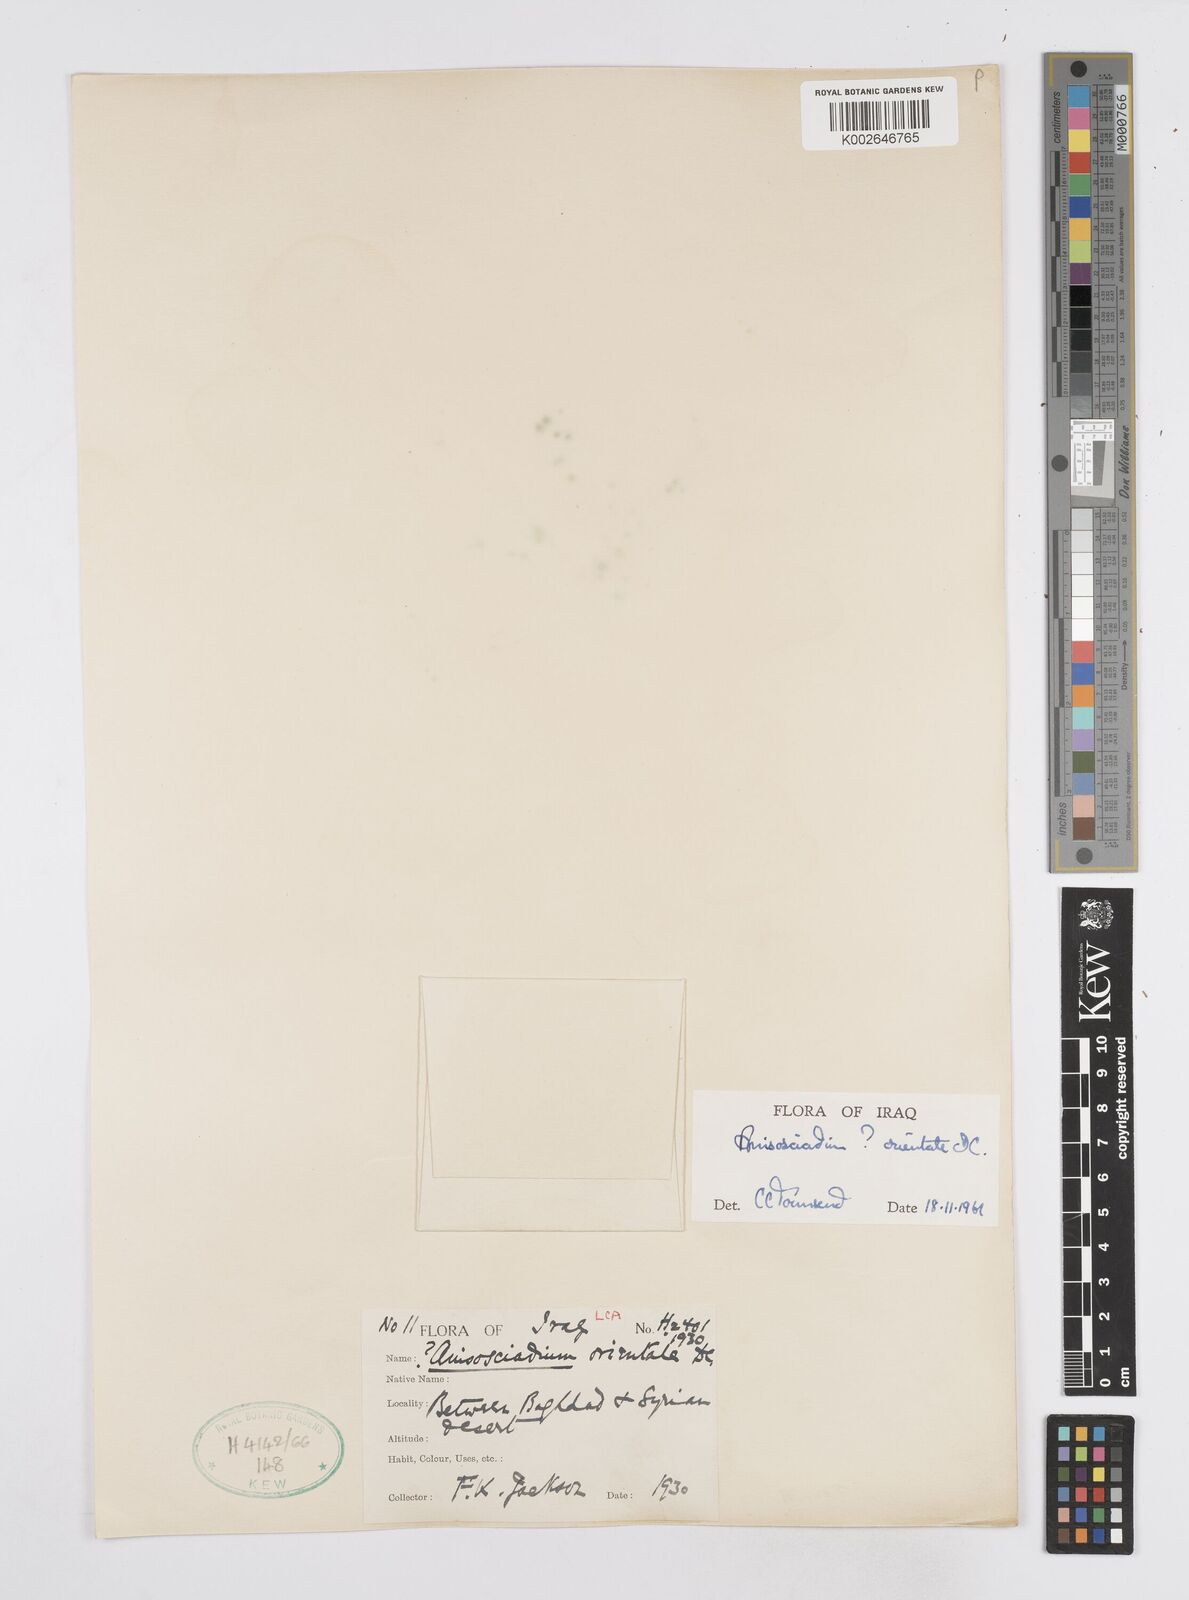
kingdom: Plantae
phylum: Tracheophyta
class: Magnoliopsida
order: Apiales
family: Apiaceae
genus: Anisosciadium
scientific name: Anisosciadium orientale
